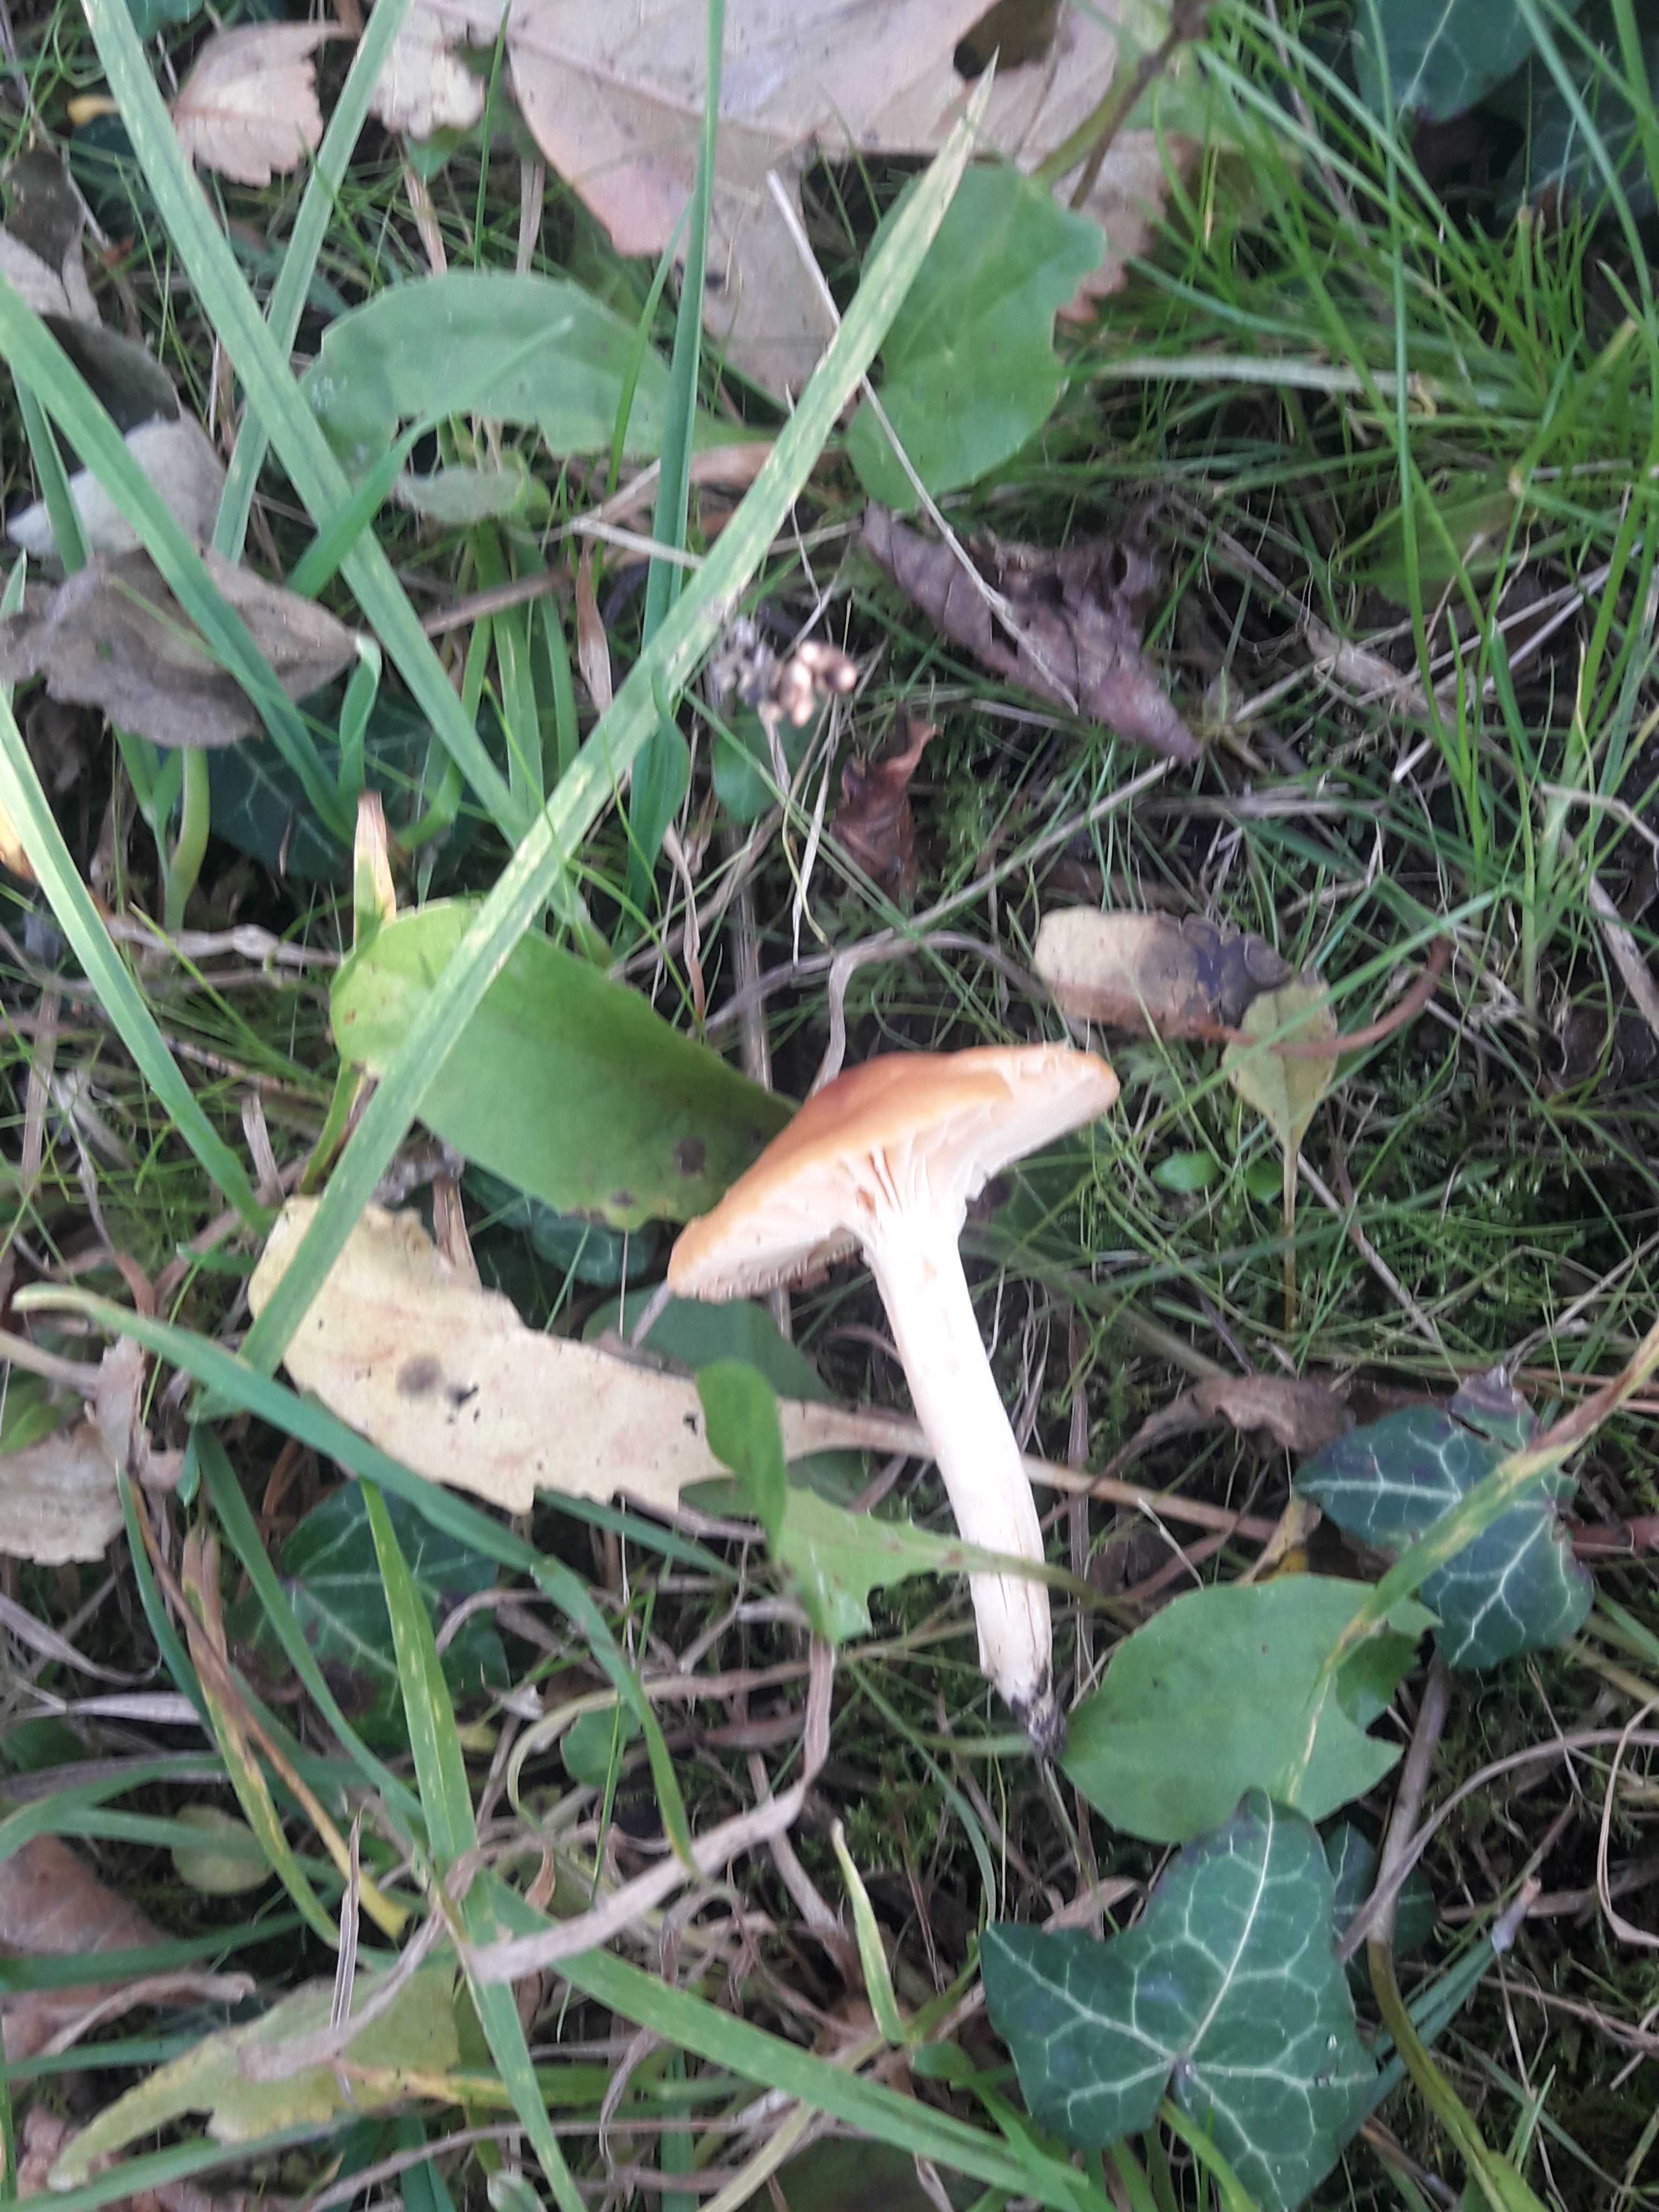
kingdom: Fungi
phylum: Basidiomycota
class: Agaricomycetes
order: Agaricales
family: Hygrophoraceae
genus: Cuphophyllus
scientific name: Cuphophyllus pratensis
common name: eng-vokshat
